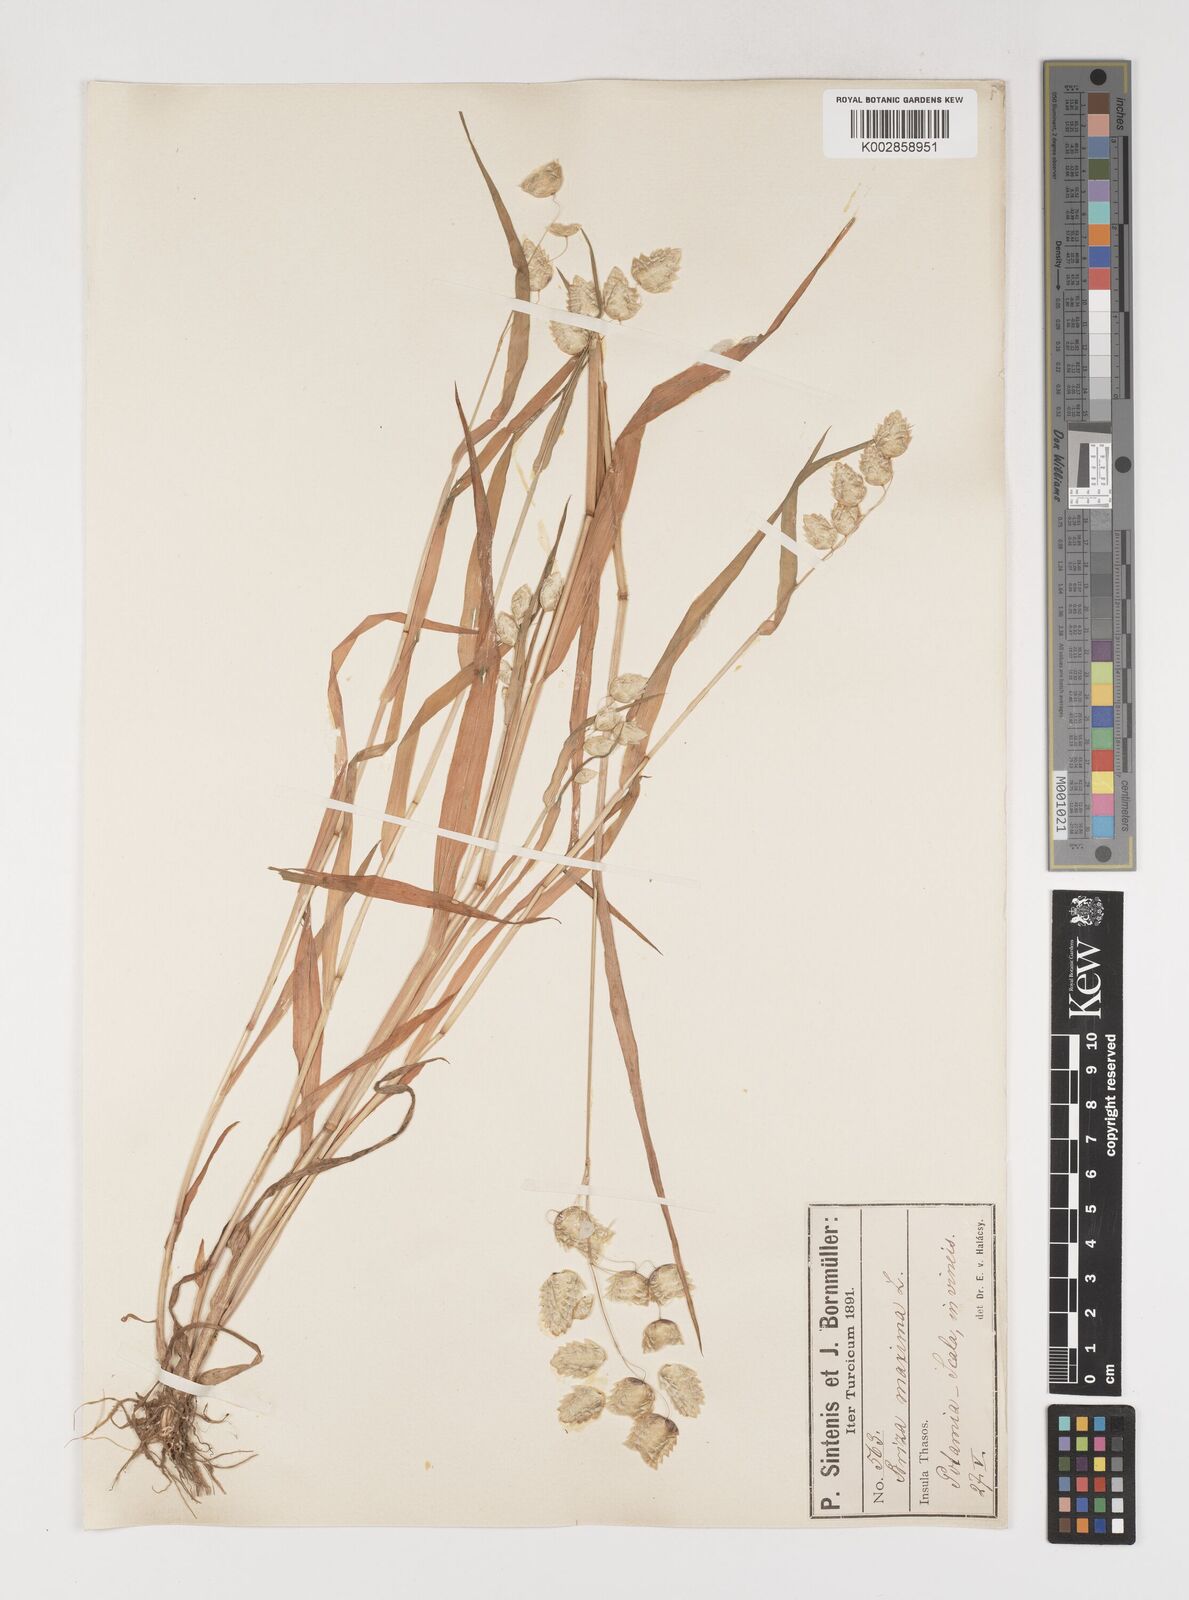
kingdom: Plantae
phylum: Tracheophyta
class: Liliopsida
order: Poales
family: Poaceae
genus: Briza
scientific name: Briza maxima
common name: Big quakinggrass
